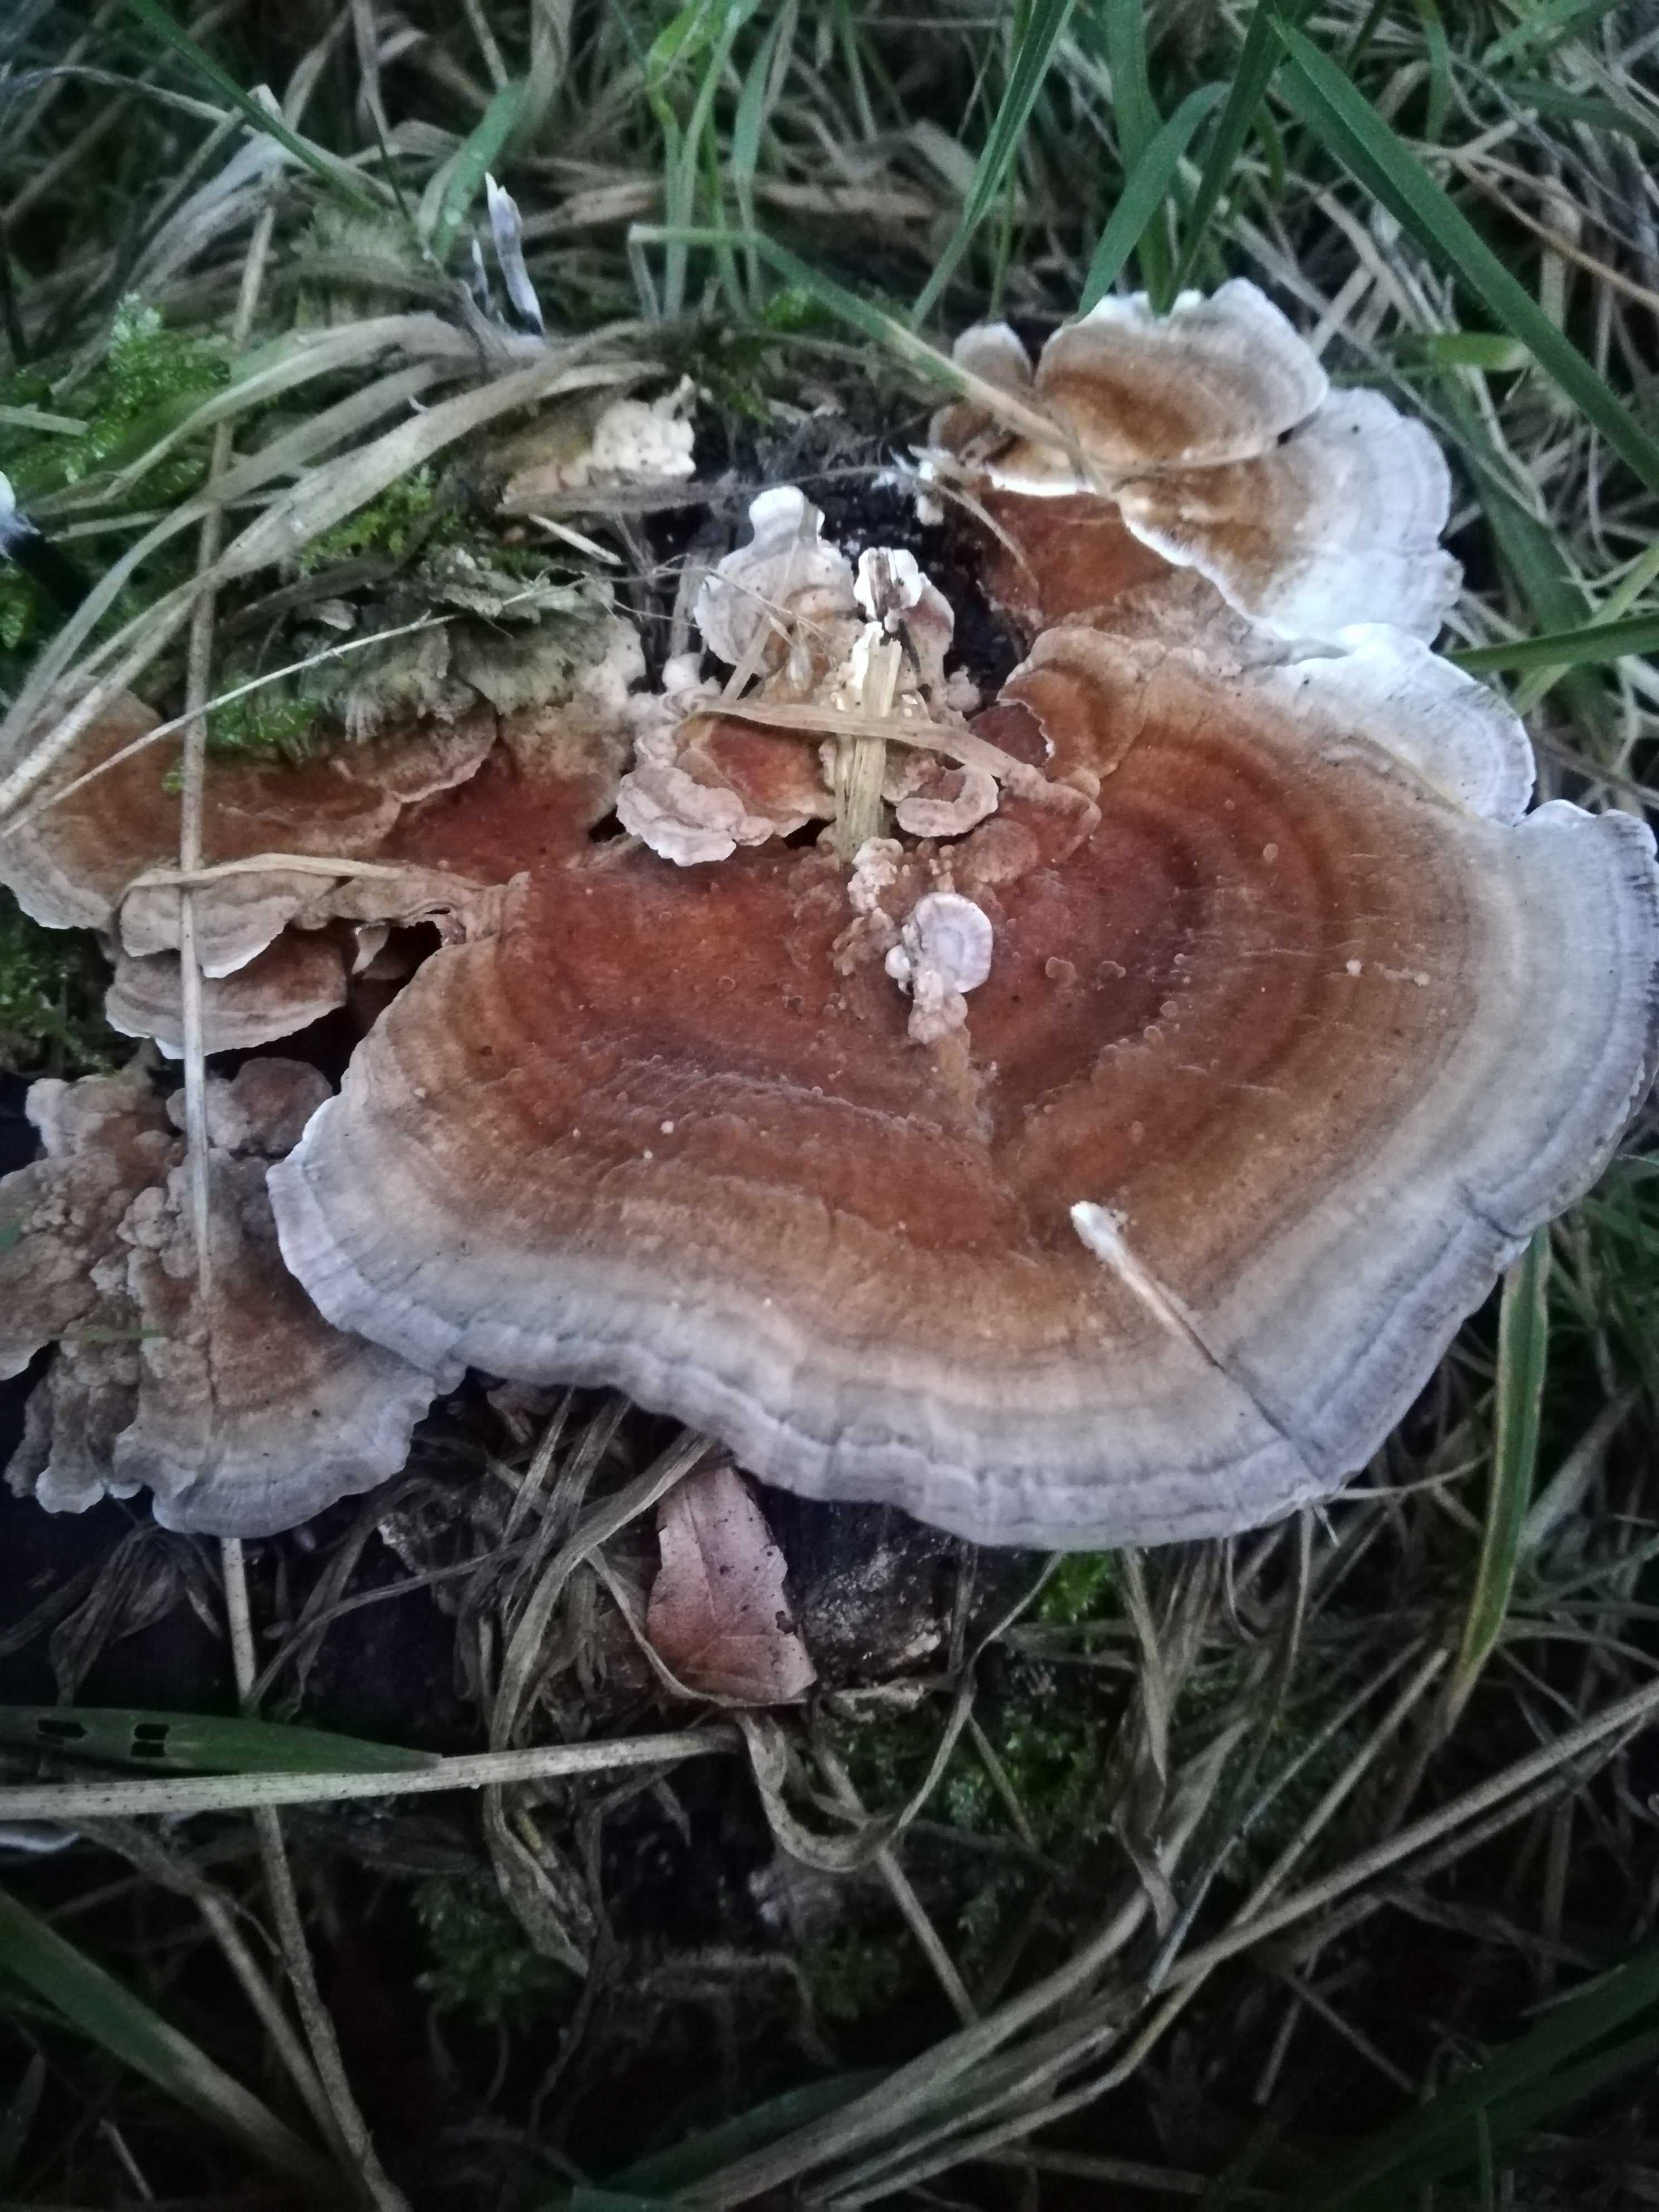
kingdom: Fungi
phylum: Basidiomycota
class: Agaricomycetes
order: Polyporales
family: Polyporaceae
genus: Trametes
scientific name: Trametes ochracea
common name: bæltet læderporesvamp
